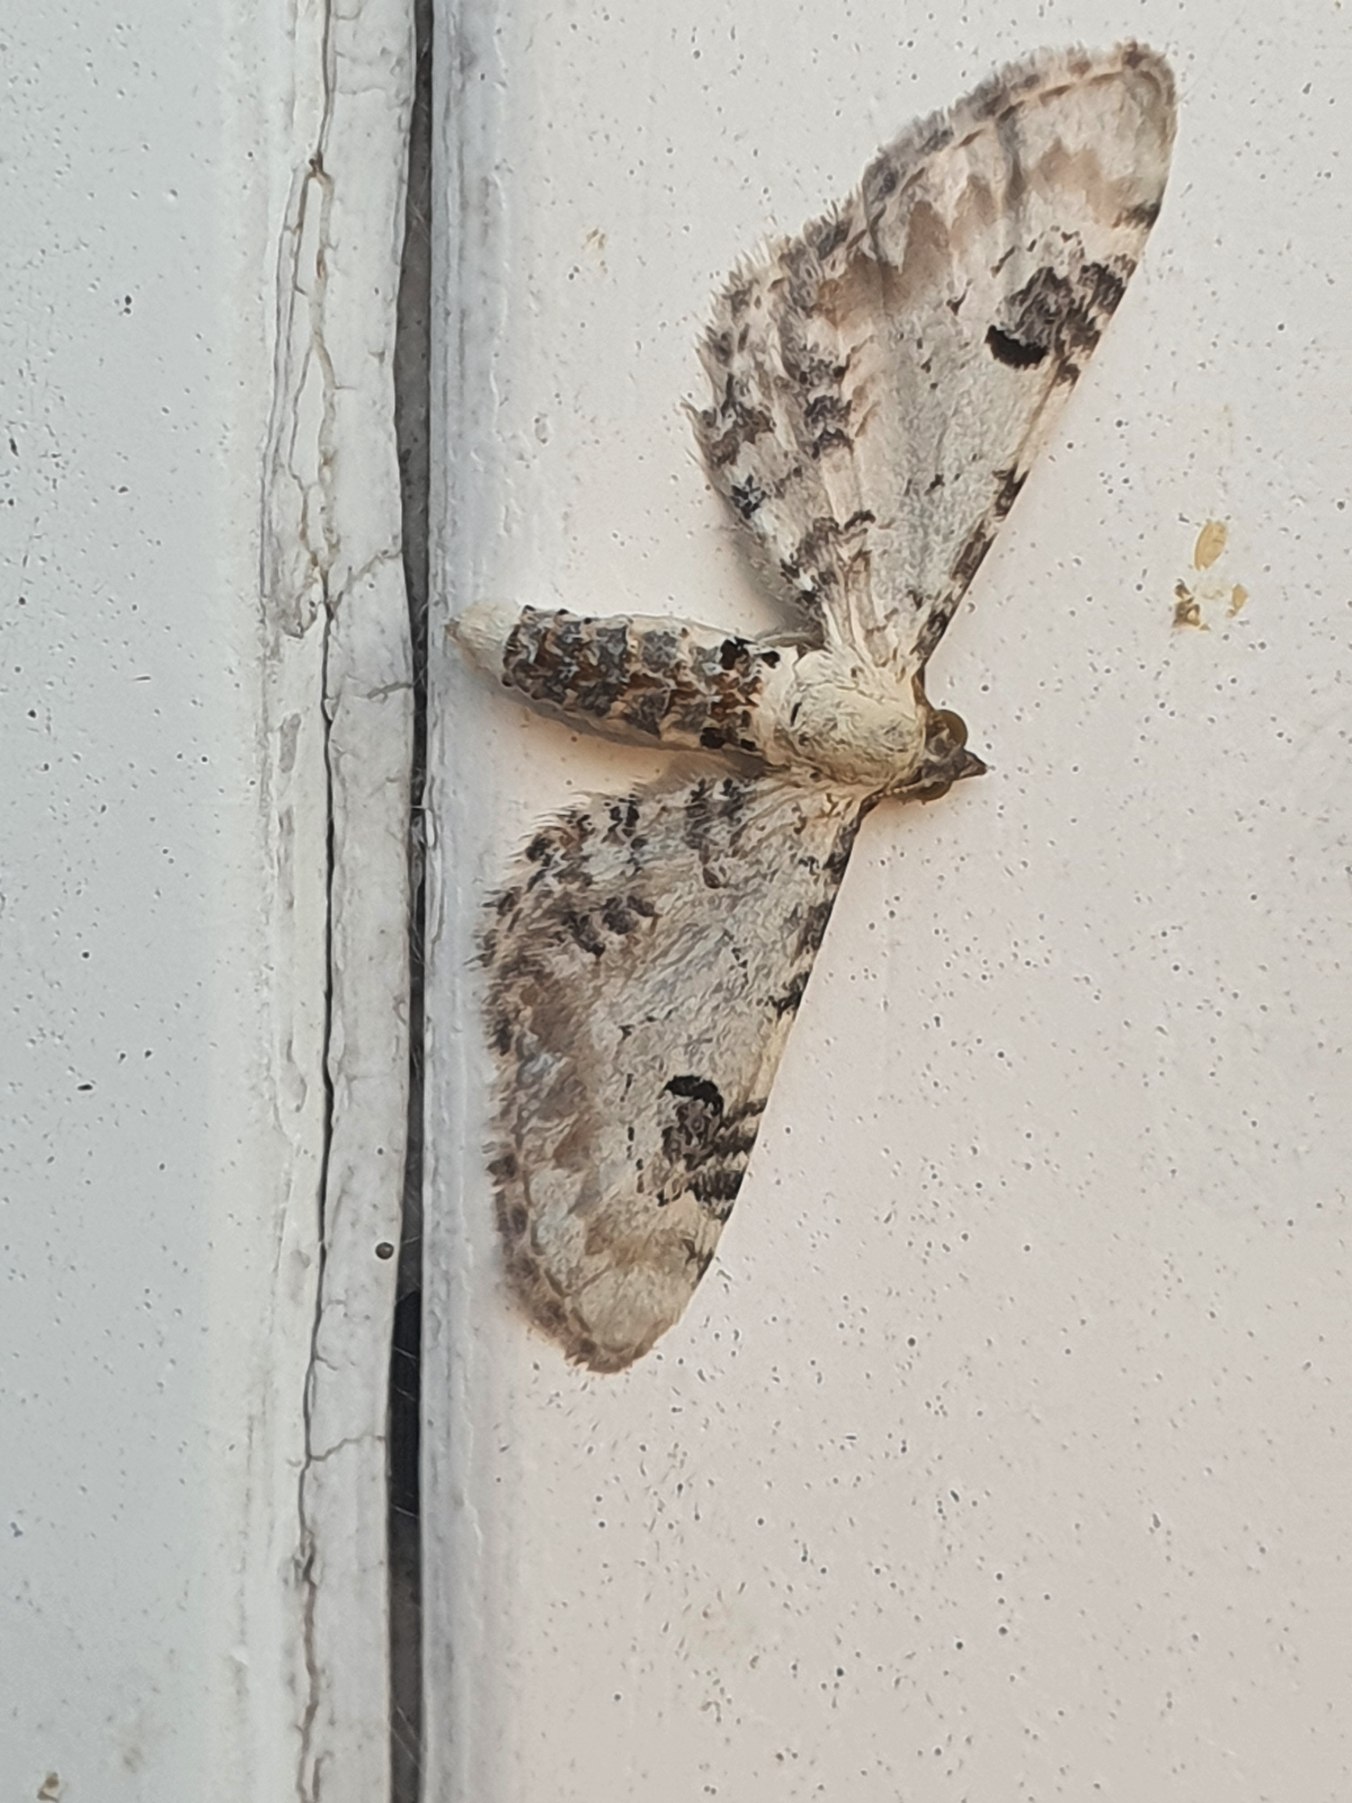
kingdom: Animalia
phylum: Arthropoda
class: Insecta
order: Lepidoptera
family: Geometridae
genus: Eupithecia
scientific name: Eupithecia centaureata
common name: Hvid dværgmåler
